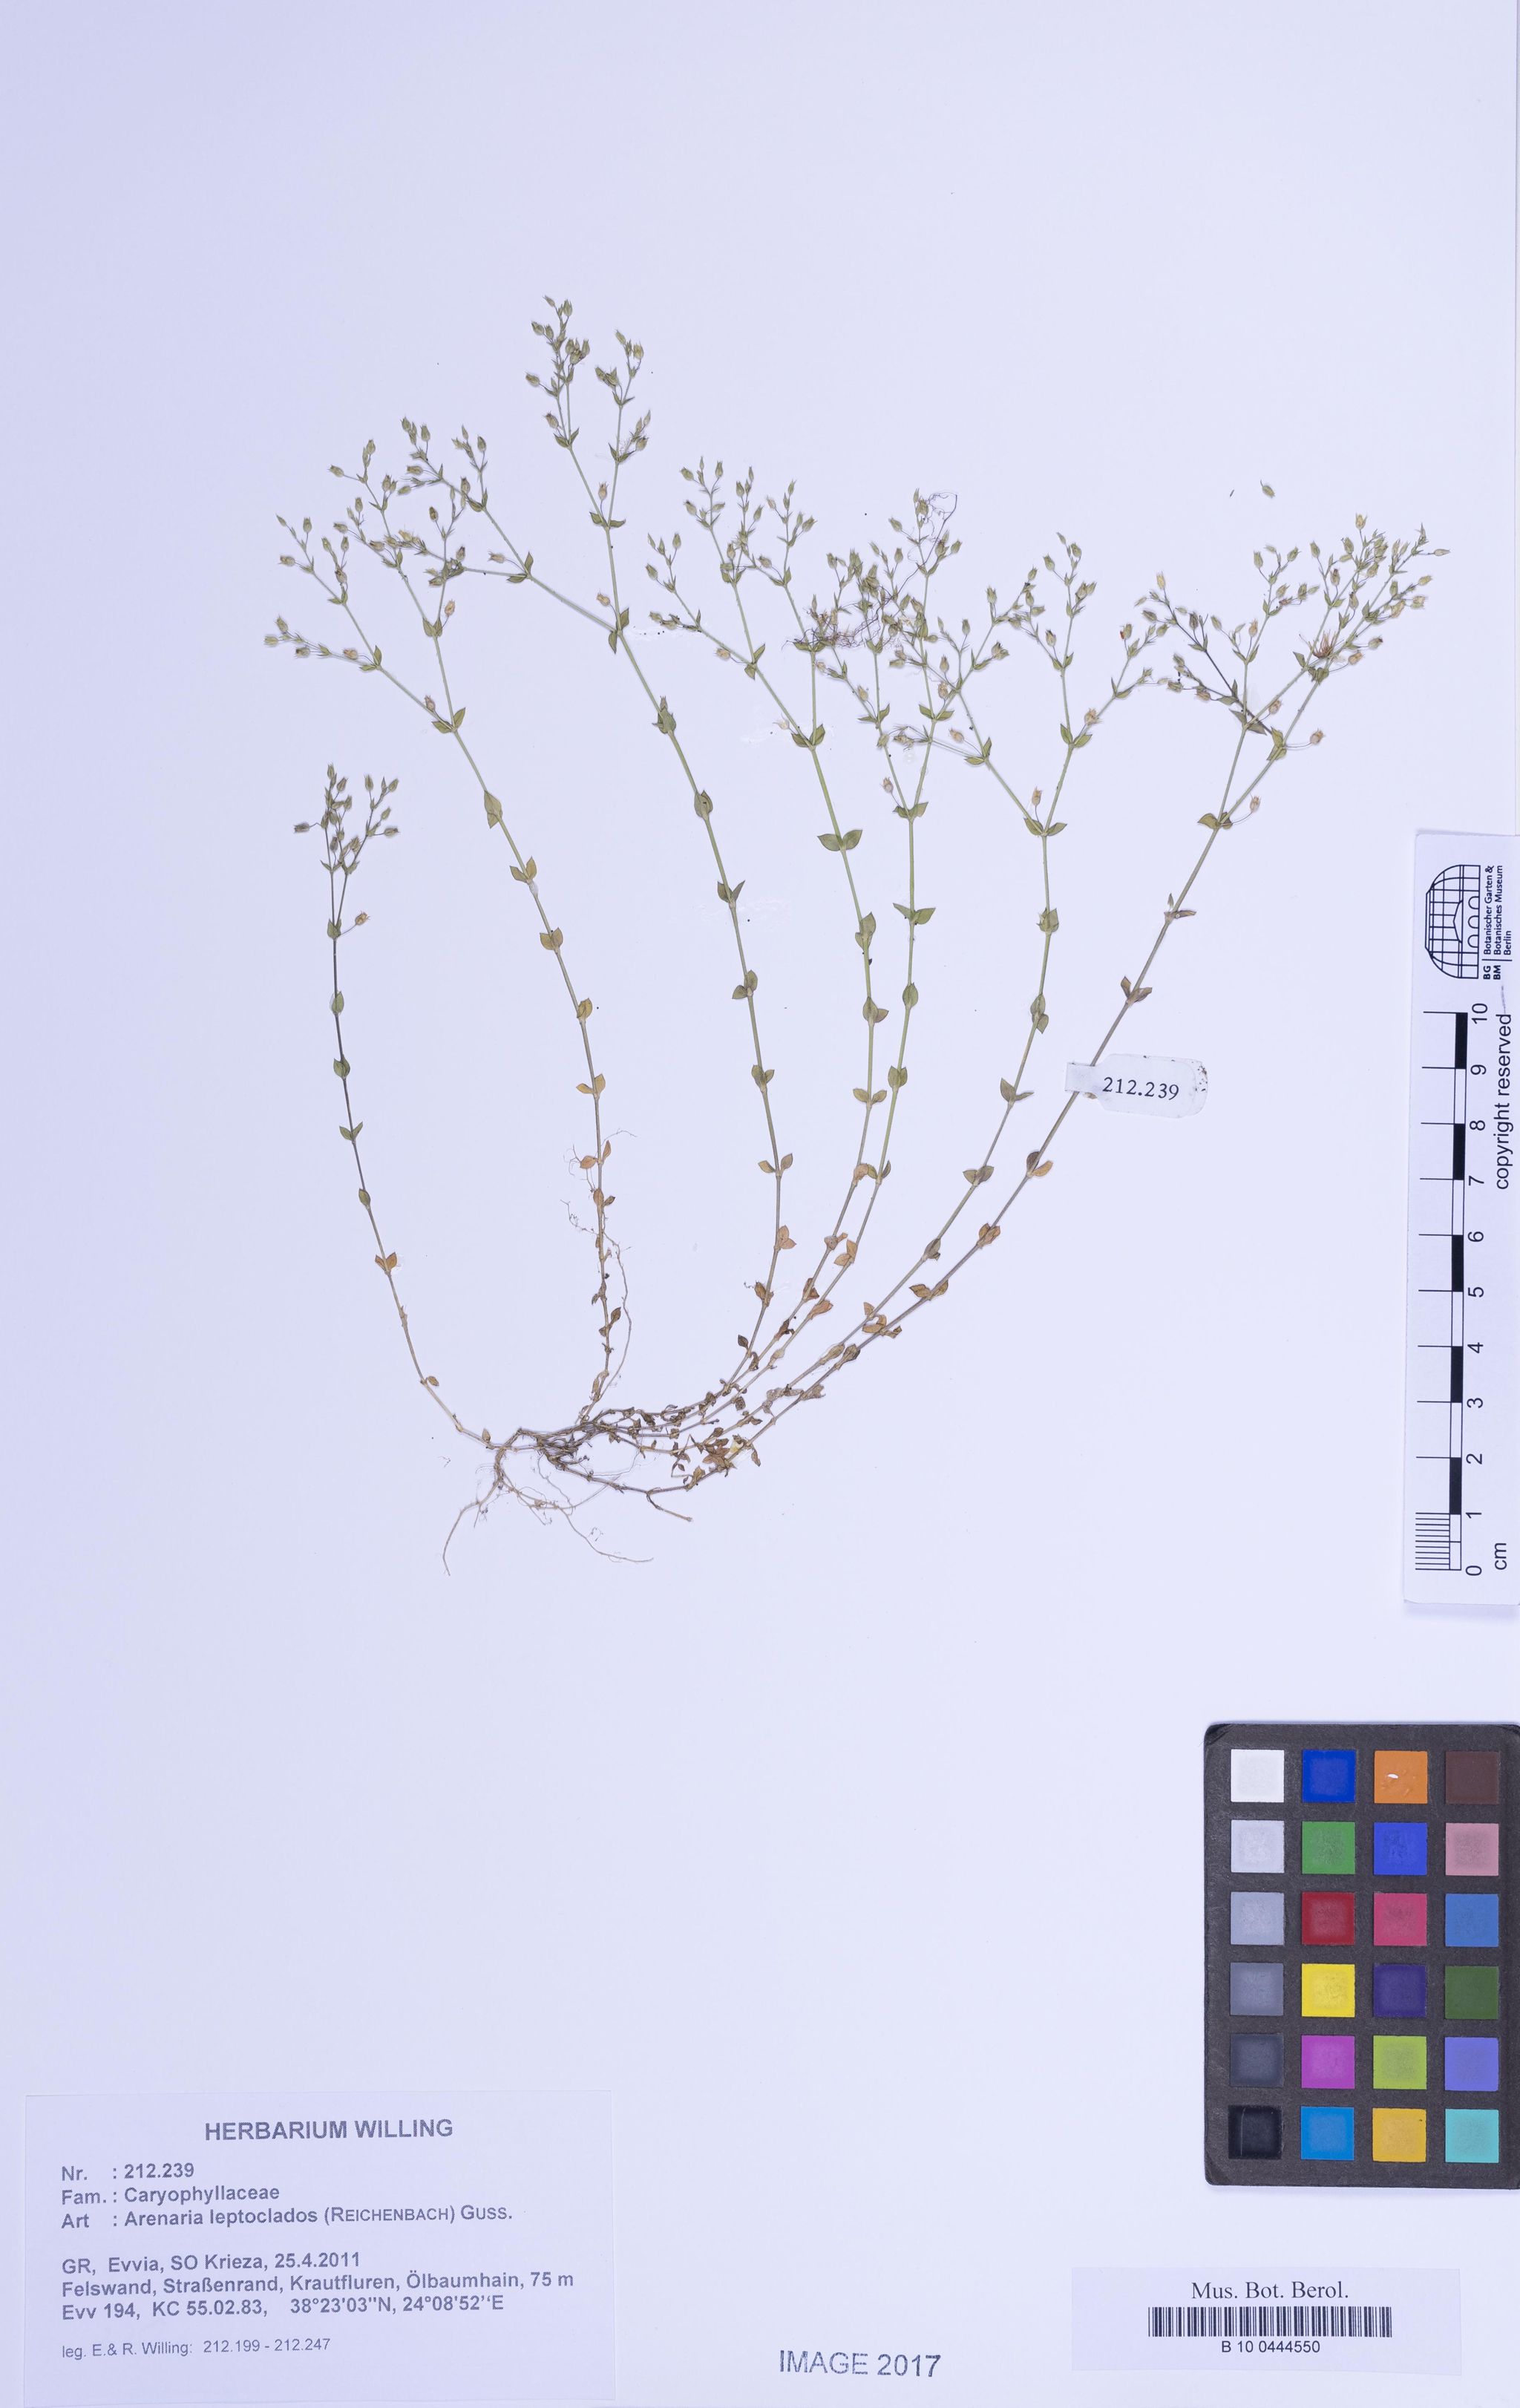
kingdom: Plantae
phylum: Tracheophyta
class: Magnoliopsida
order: Caryophyllales
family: Caryophyllaceae
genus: Arenaria
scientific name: Arenaria leptoclados
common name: Thyme-leaved sandwort
